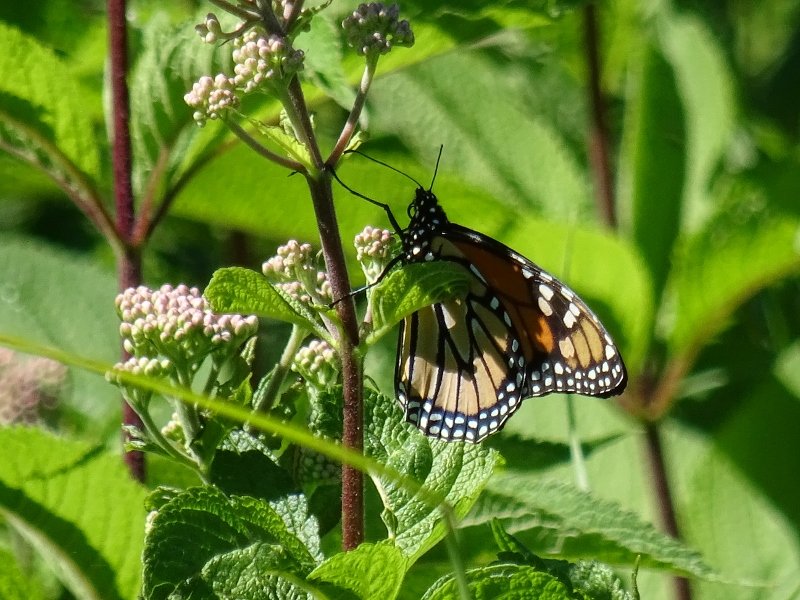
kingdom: Animalia
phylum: Arthropoda
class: Insecta
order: Lepidoptera
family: Nymphalidae
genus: Danaus
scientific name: Danaus plexippus
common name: Monarch
